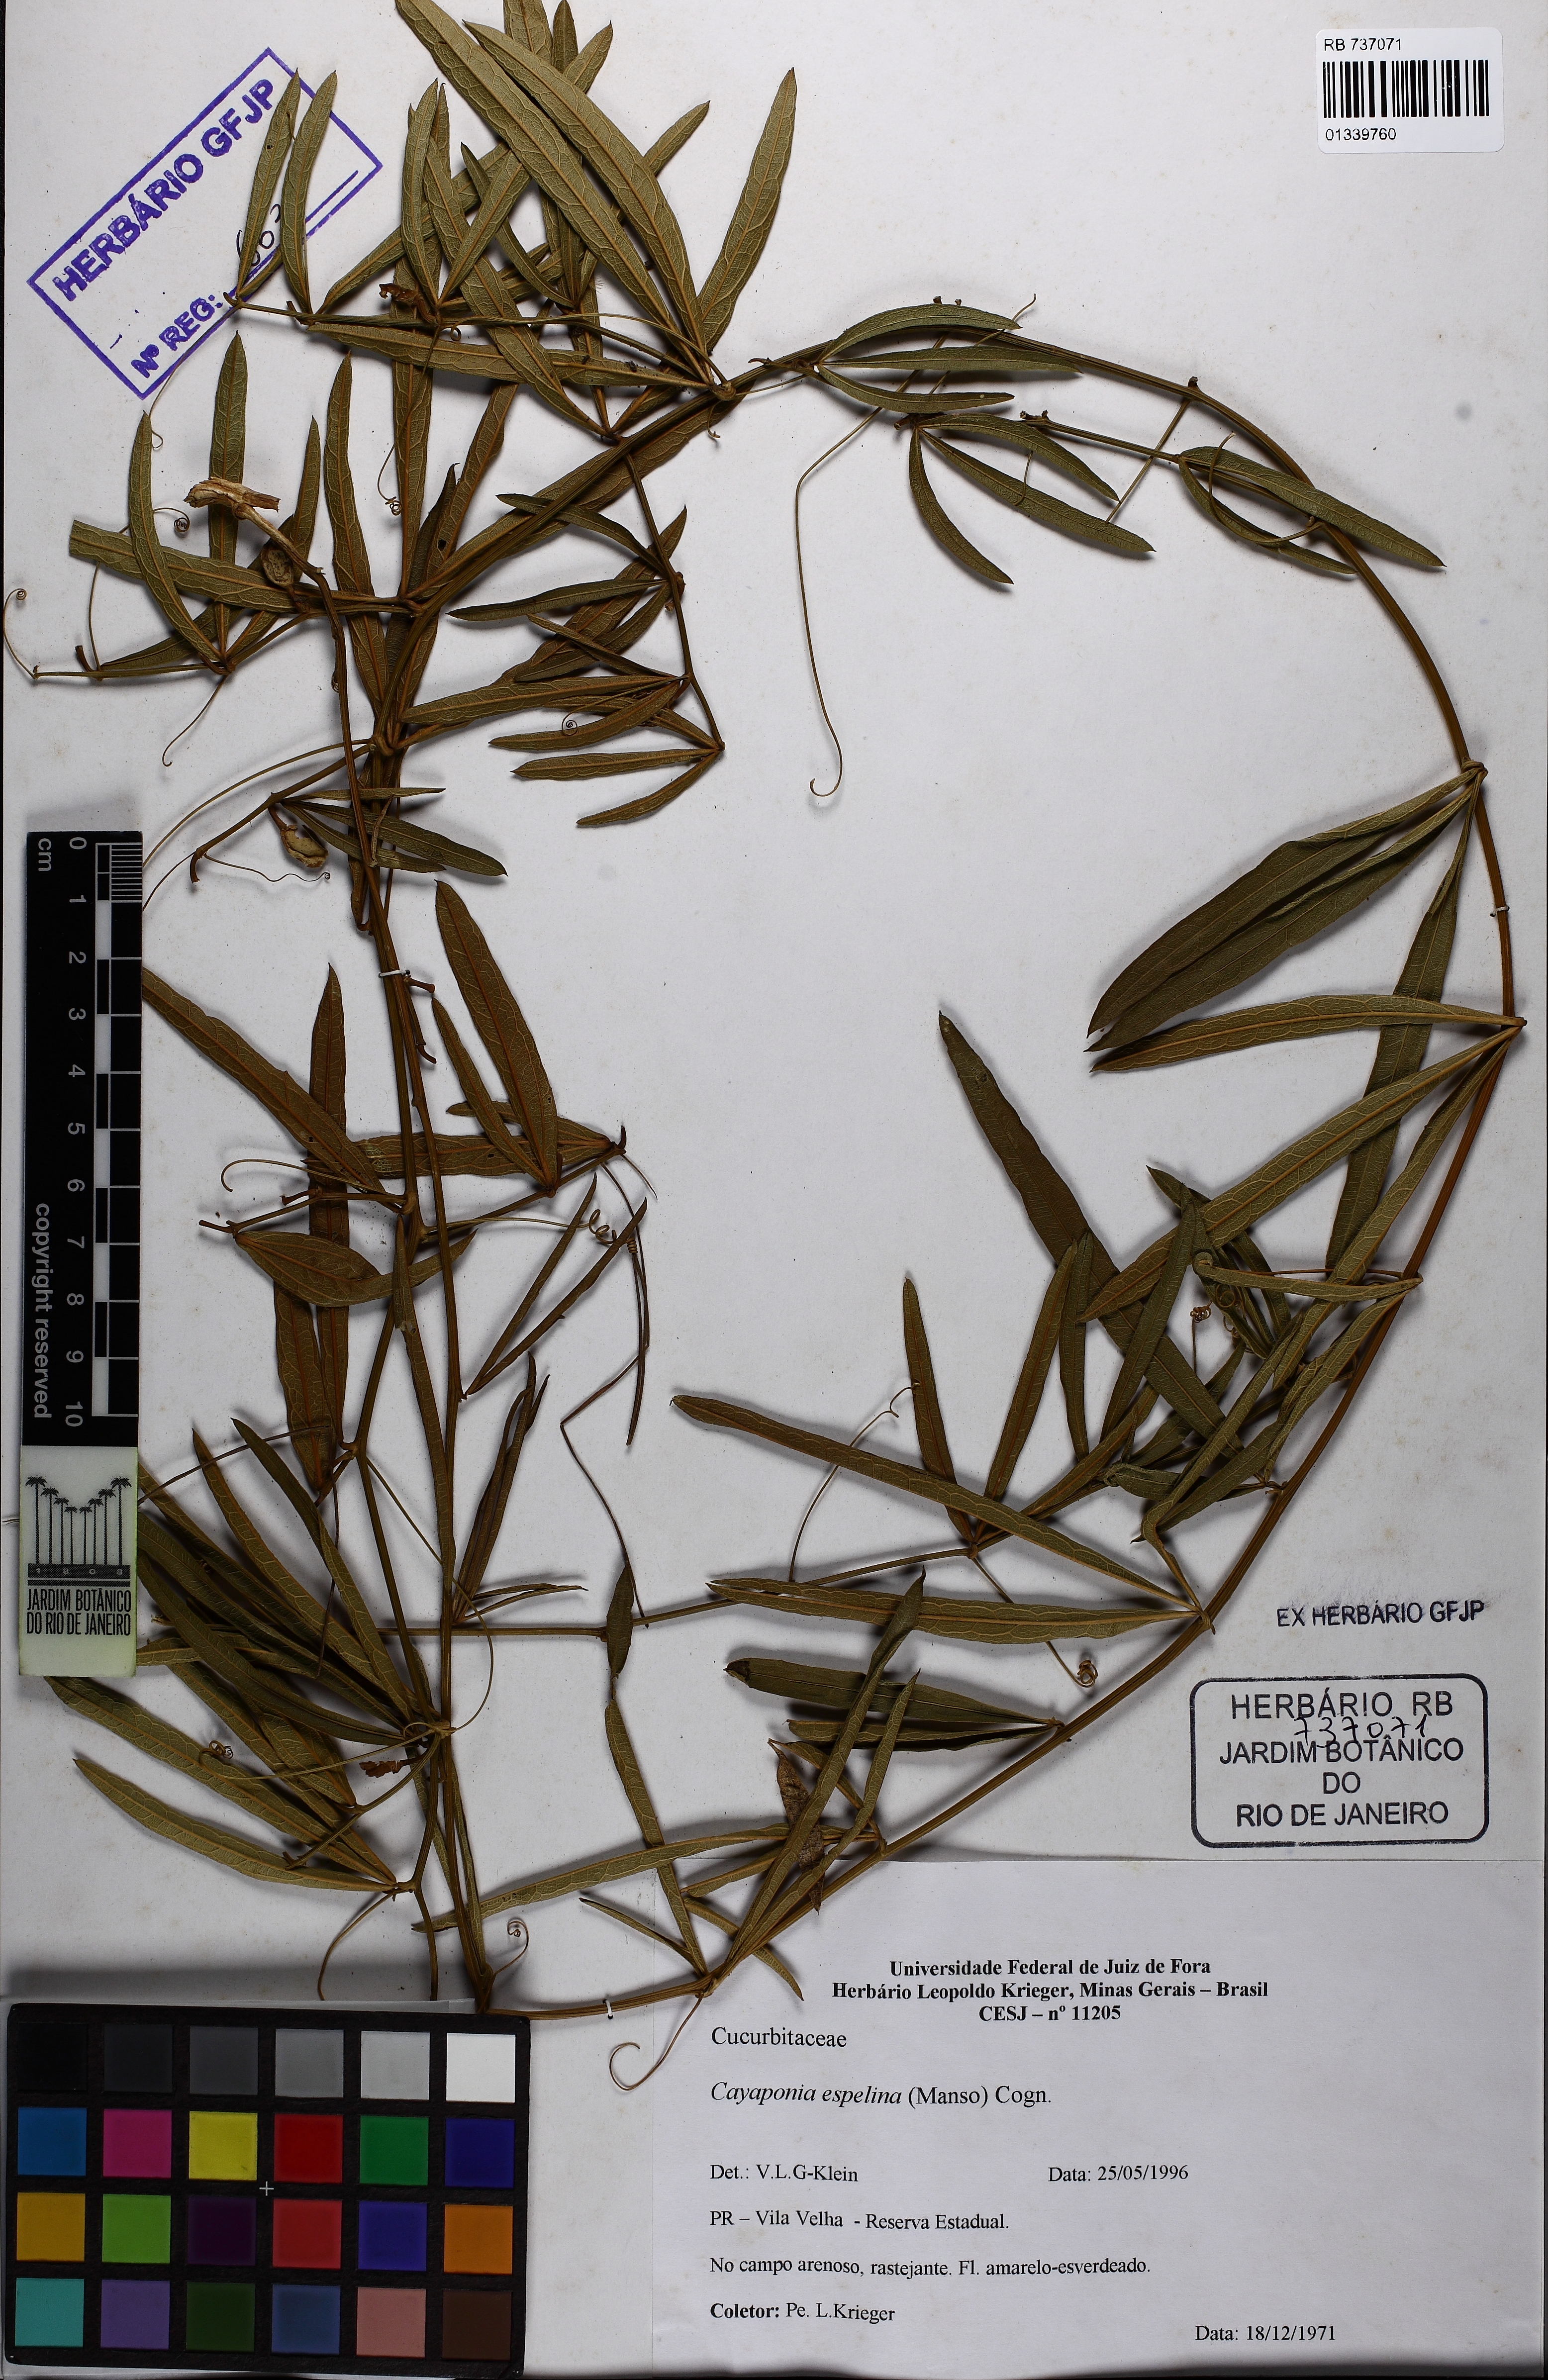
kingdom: Plantae
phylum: Tracheophyta
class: Magnoliopsida
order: Cucurbitales
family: Cucurbitaceae
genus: Cayaponia
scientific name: Cayaponia espelina
